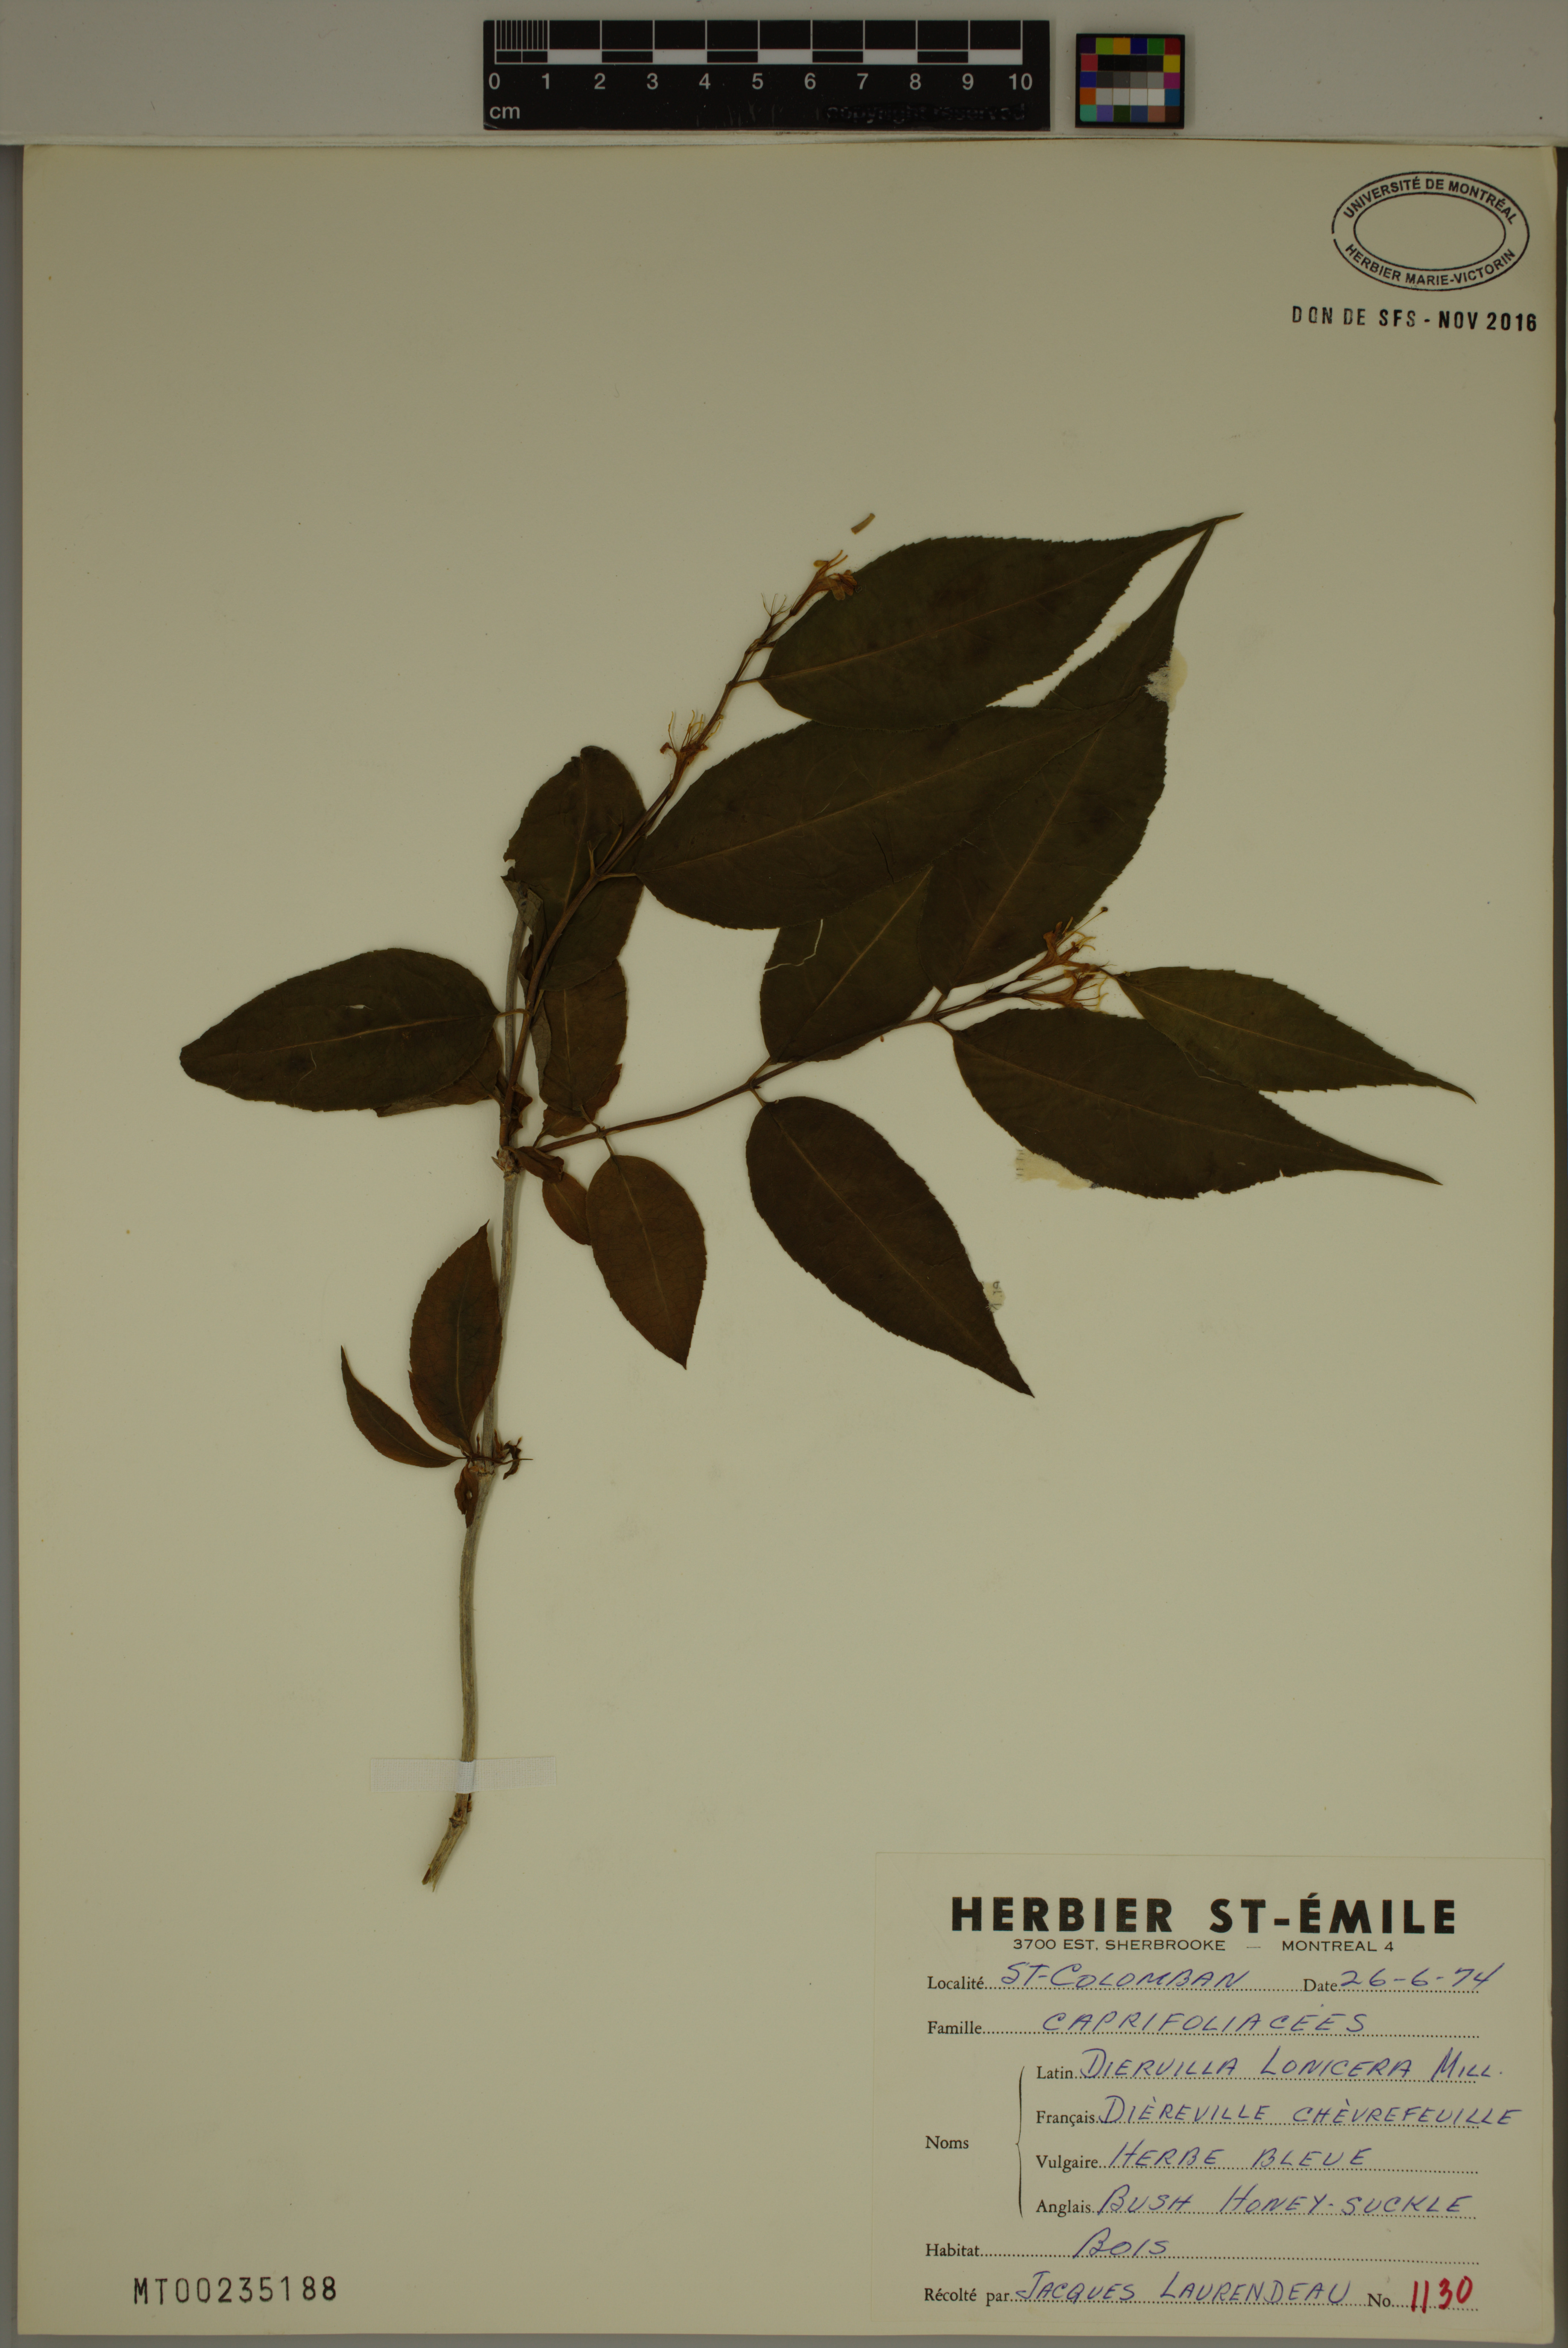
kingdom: Plantae
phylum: Tracheophyta
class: Magnoliopsida
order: Dipsacales
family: Caprifoliaceae
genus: Diervilla
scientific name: Diervilla lonicera
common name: Bush-honeysuckle
